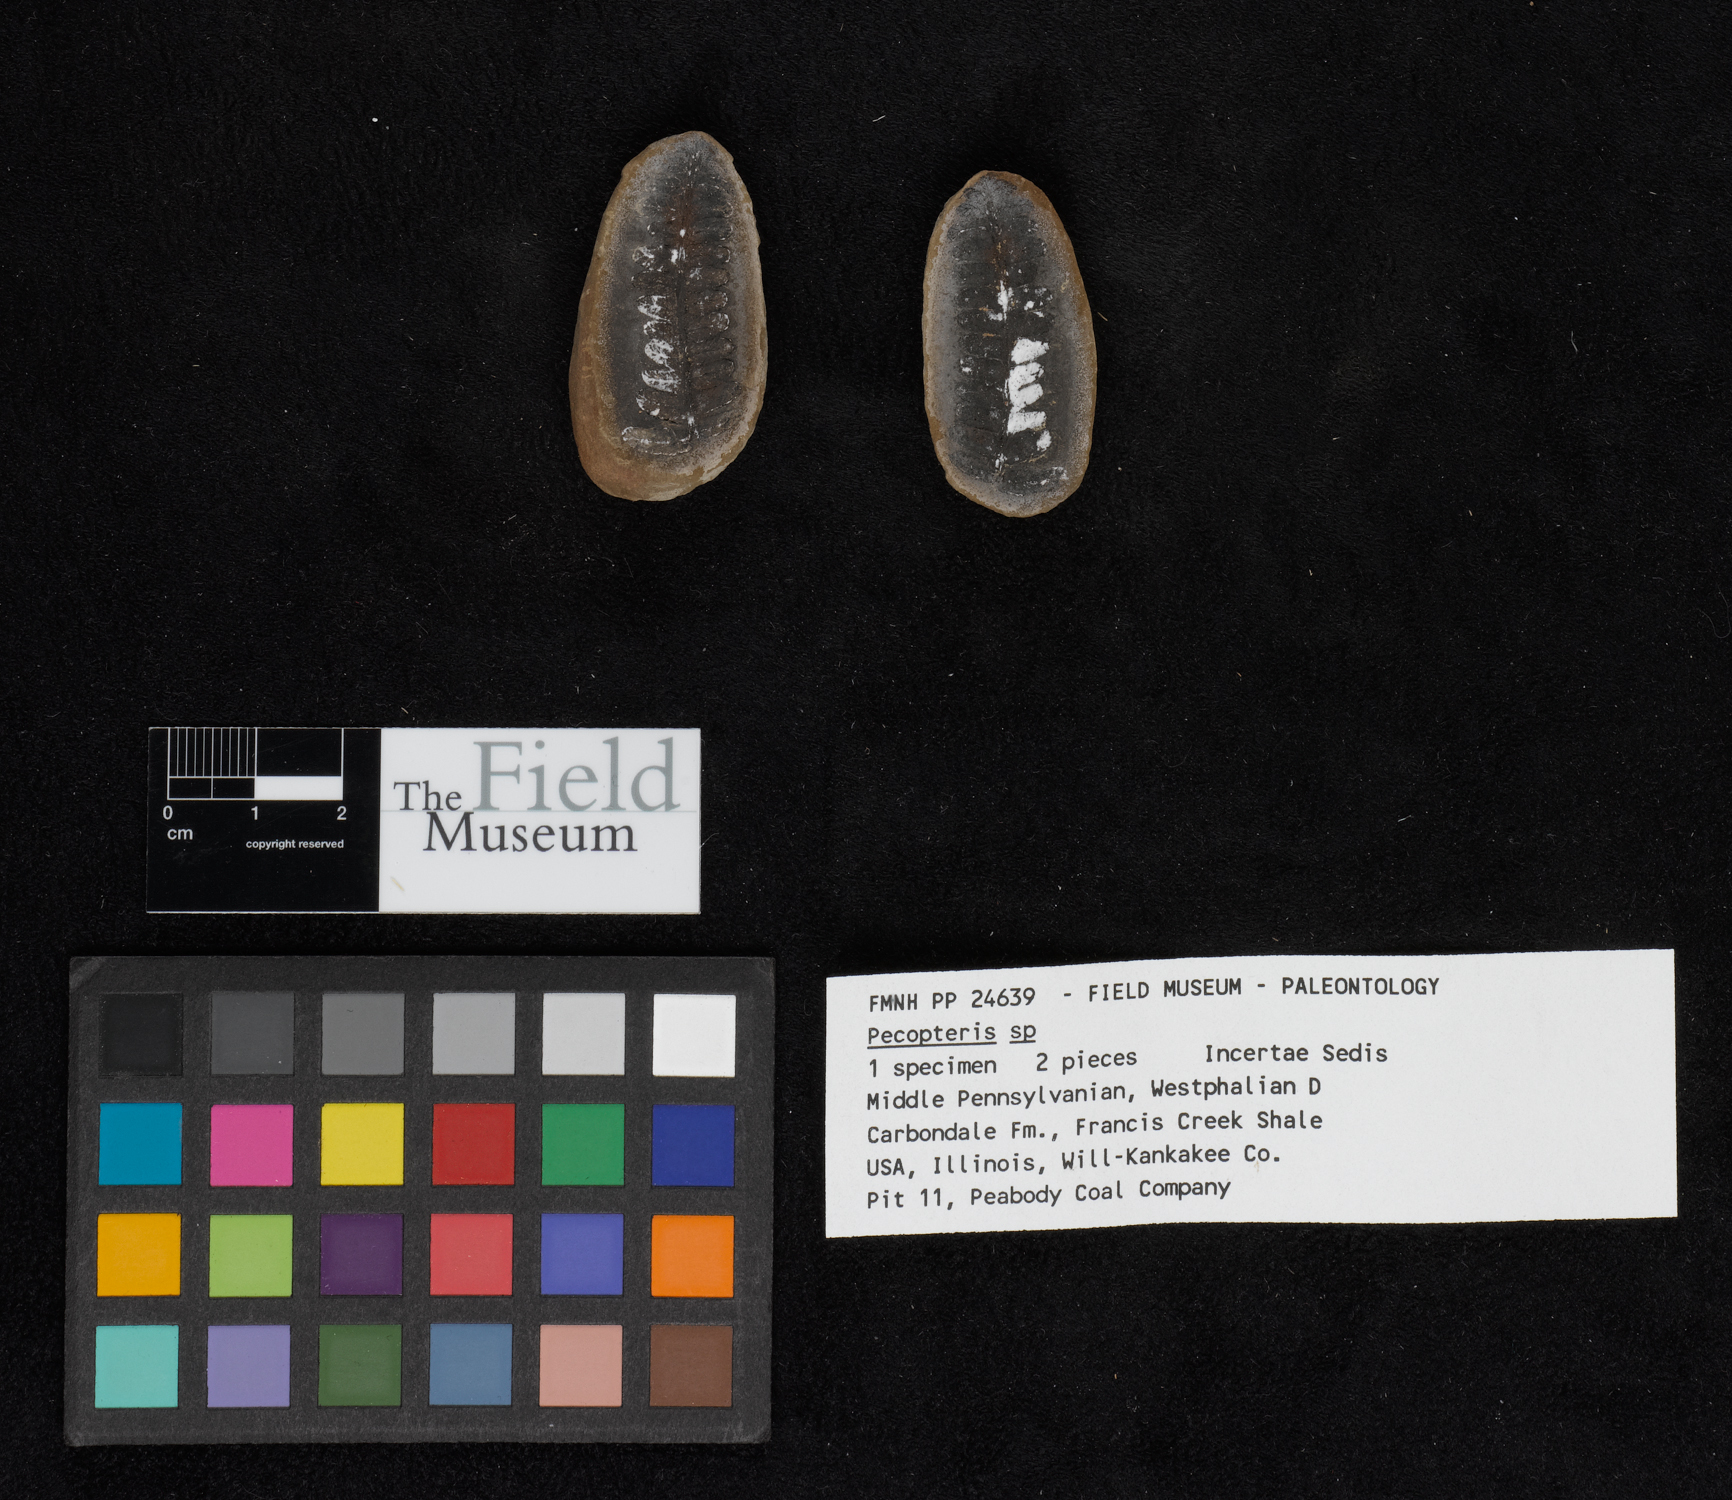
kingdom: Plantae
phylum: Tracheophyta
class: Polypodiopsida
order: Marattiales
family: Asterothecaceae
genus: Pecopteris
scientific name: Pecopteris
